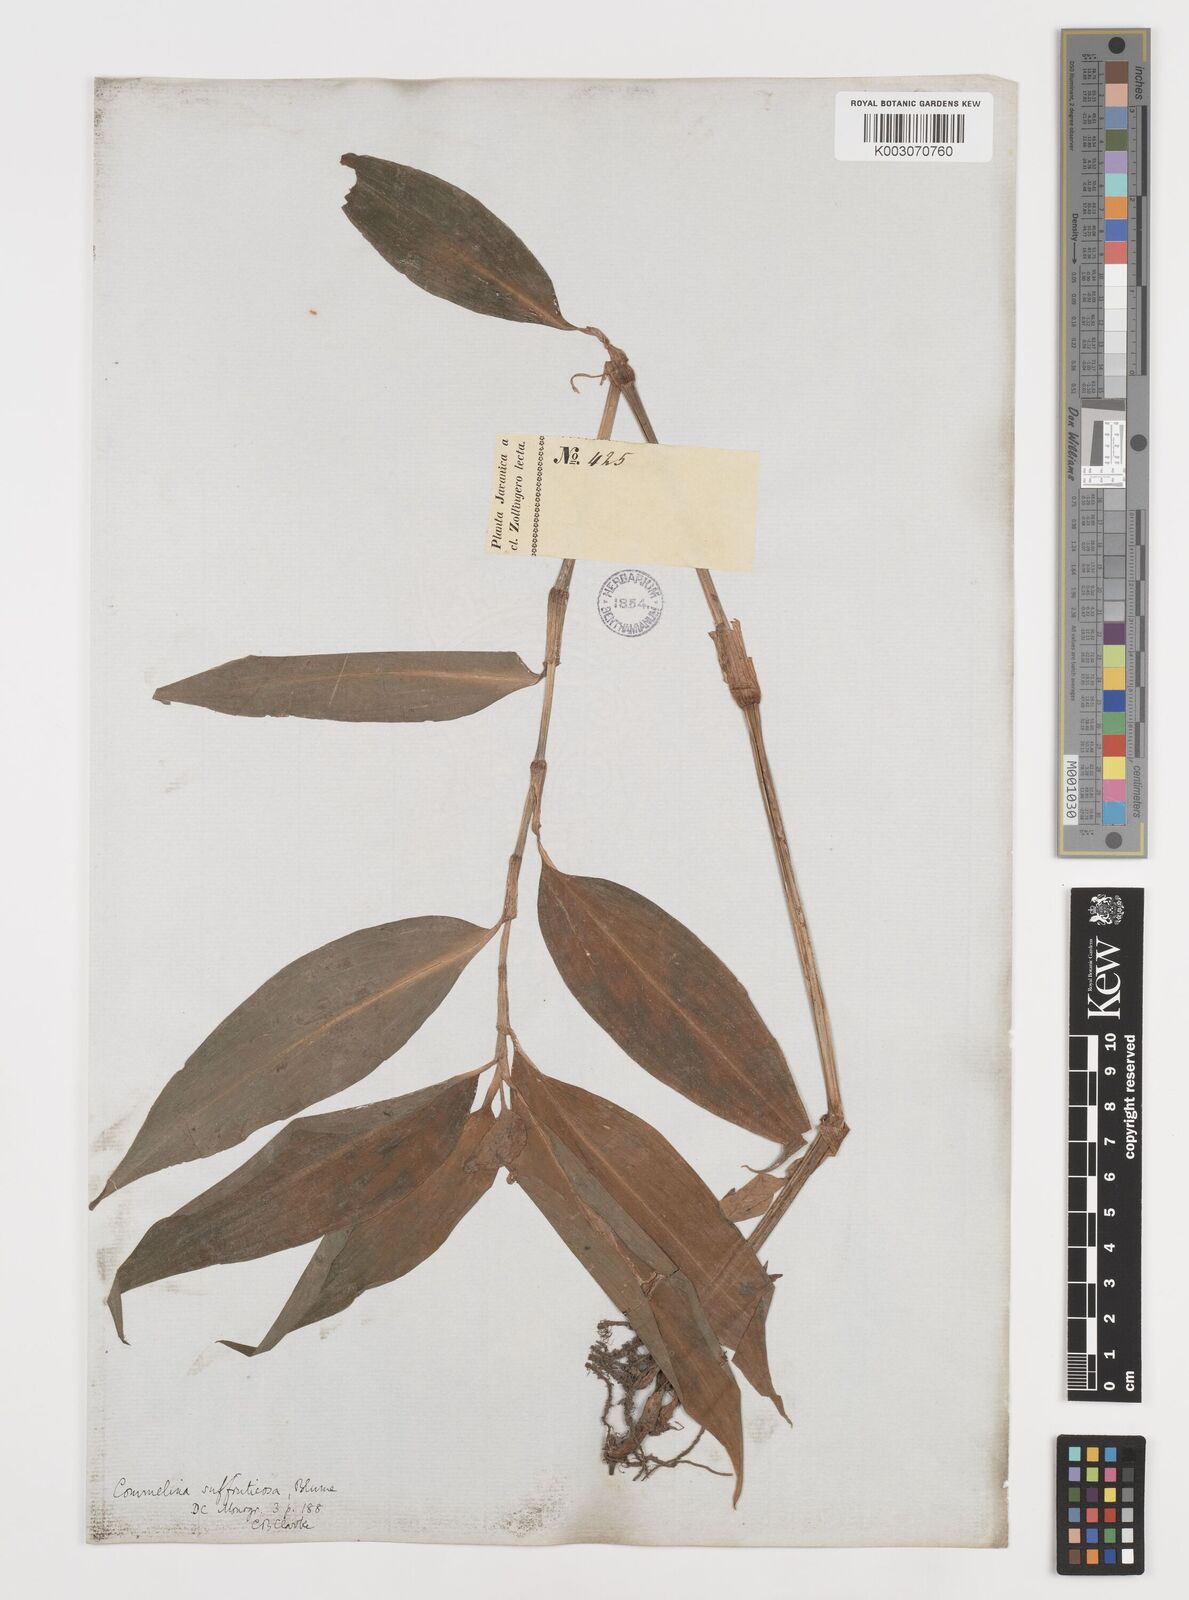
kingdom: Plantae
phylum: Tracheophyta
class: Liliopsida
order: Commelinales
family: Commelinaceae
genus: Commelina
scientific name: Commelina suffruticosa
